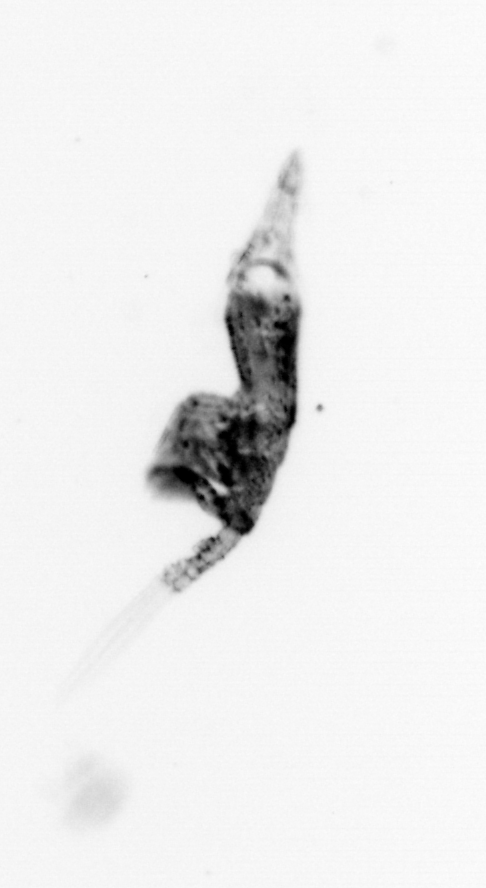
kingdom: Animalia
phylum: Arthropoda
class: Copepoda
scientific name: Copepoda
